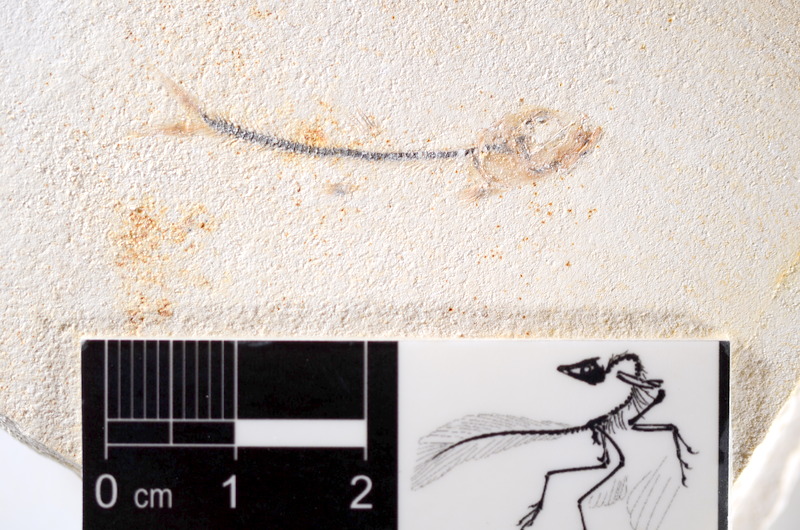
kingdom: Animalia
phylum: Chordata
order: Salmoniformes
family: Orthogonikleithridae
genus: Orthogonikleithrus
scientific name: Orthogonikleithrus hoelli
